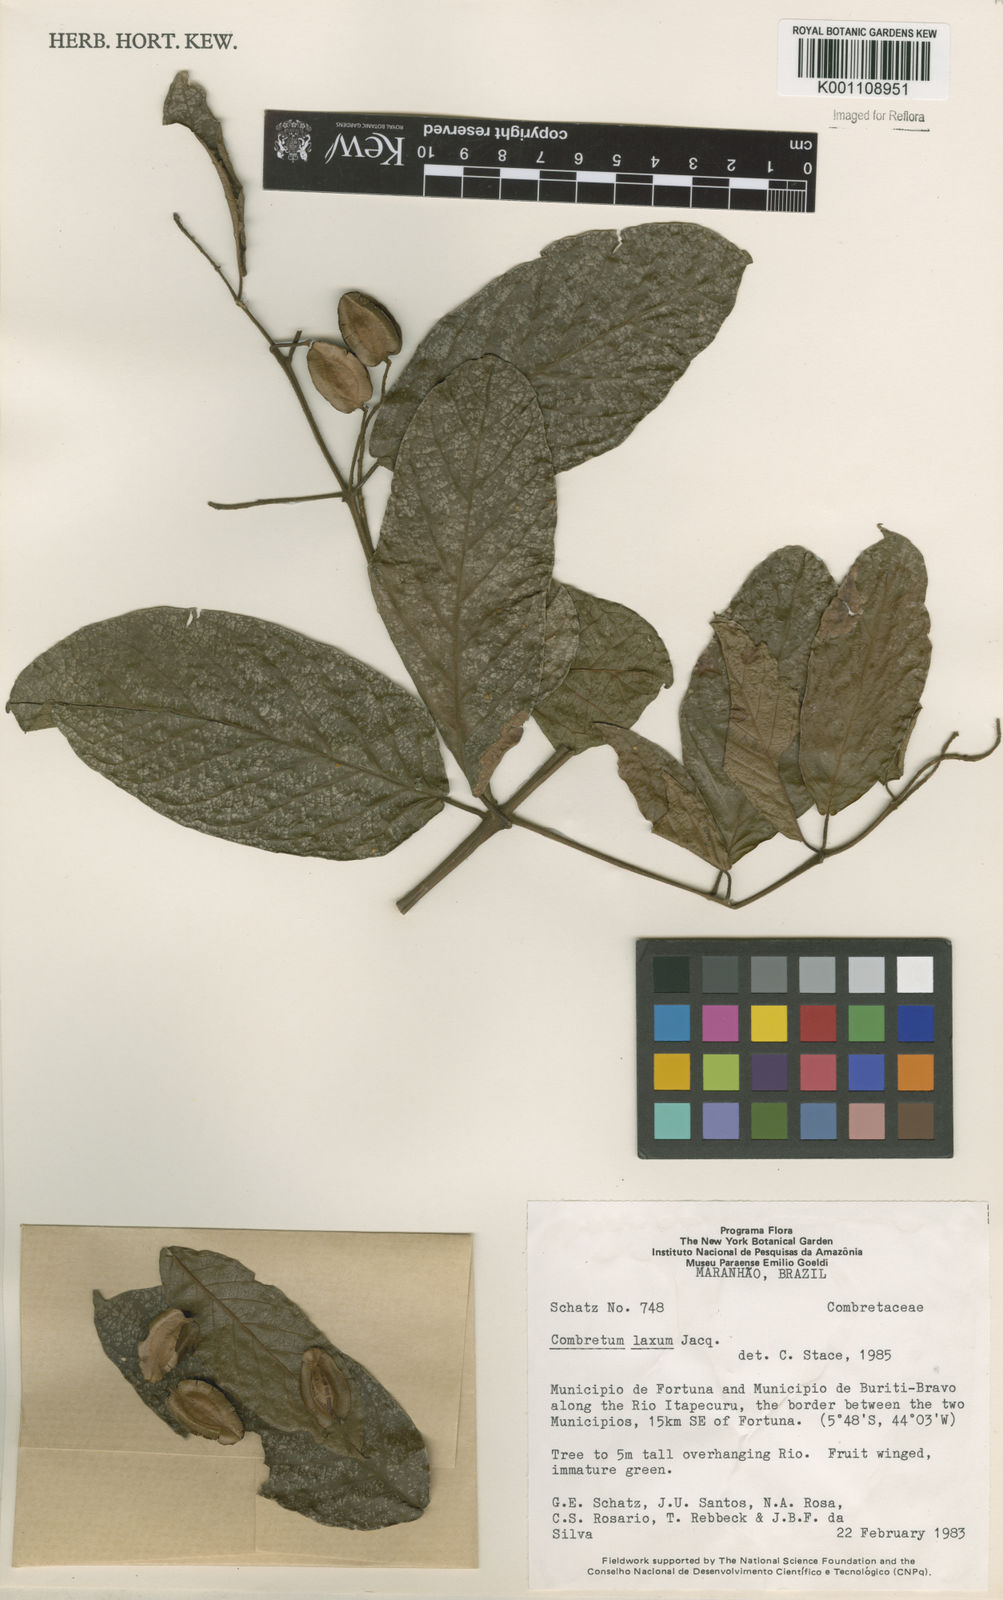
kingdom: Plantae
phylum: Tracheophyta
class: Magnoliopsida
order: Myrtales
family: Combretaceae
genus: Combretum
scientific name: Combretum laxum
